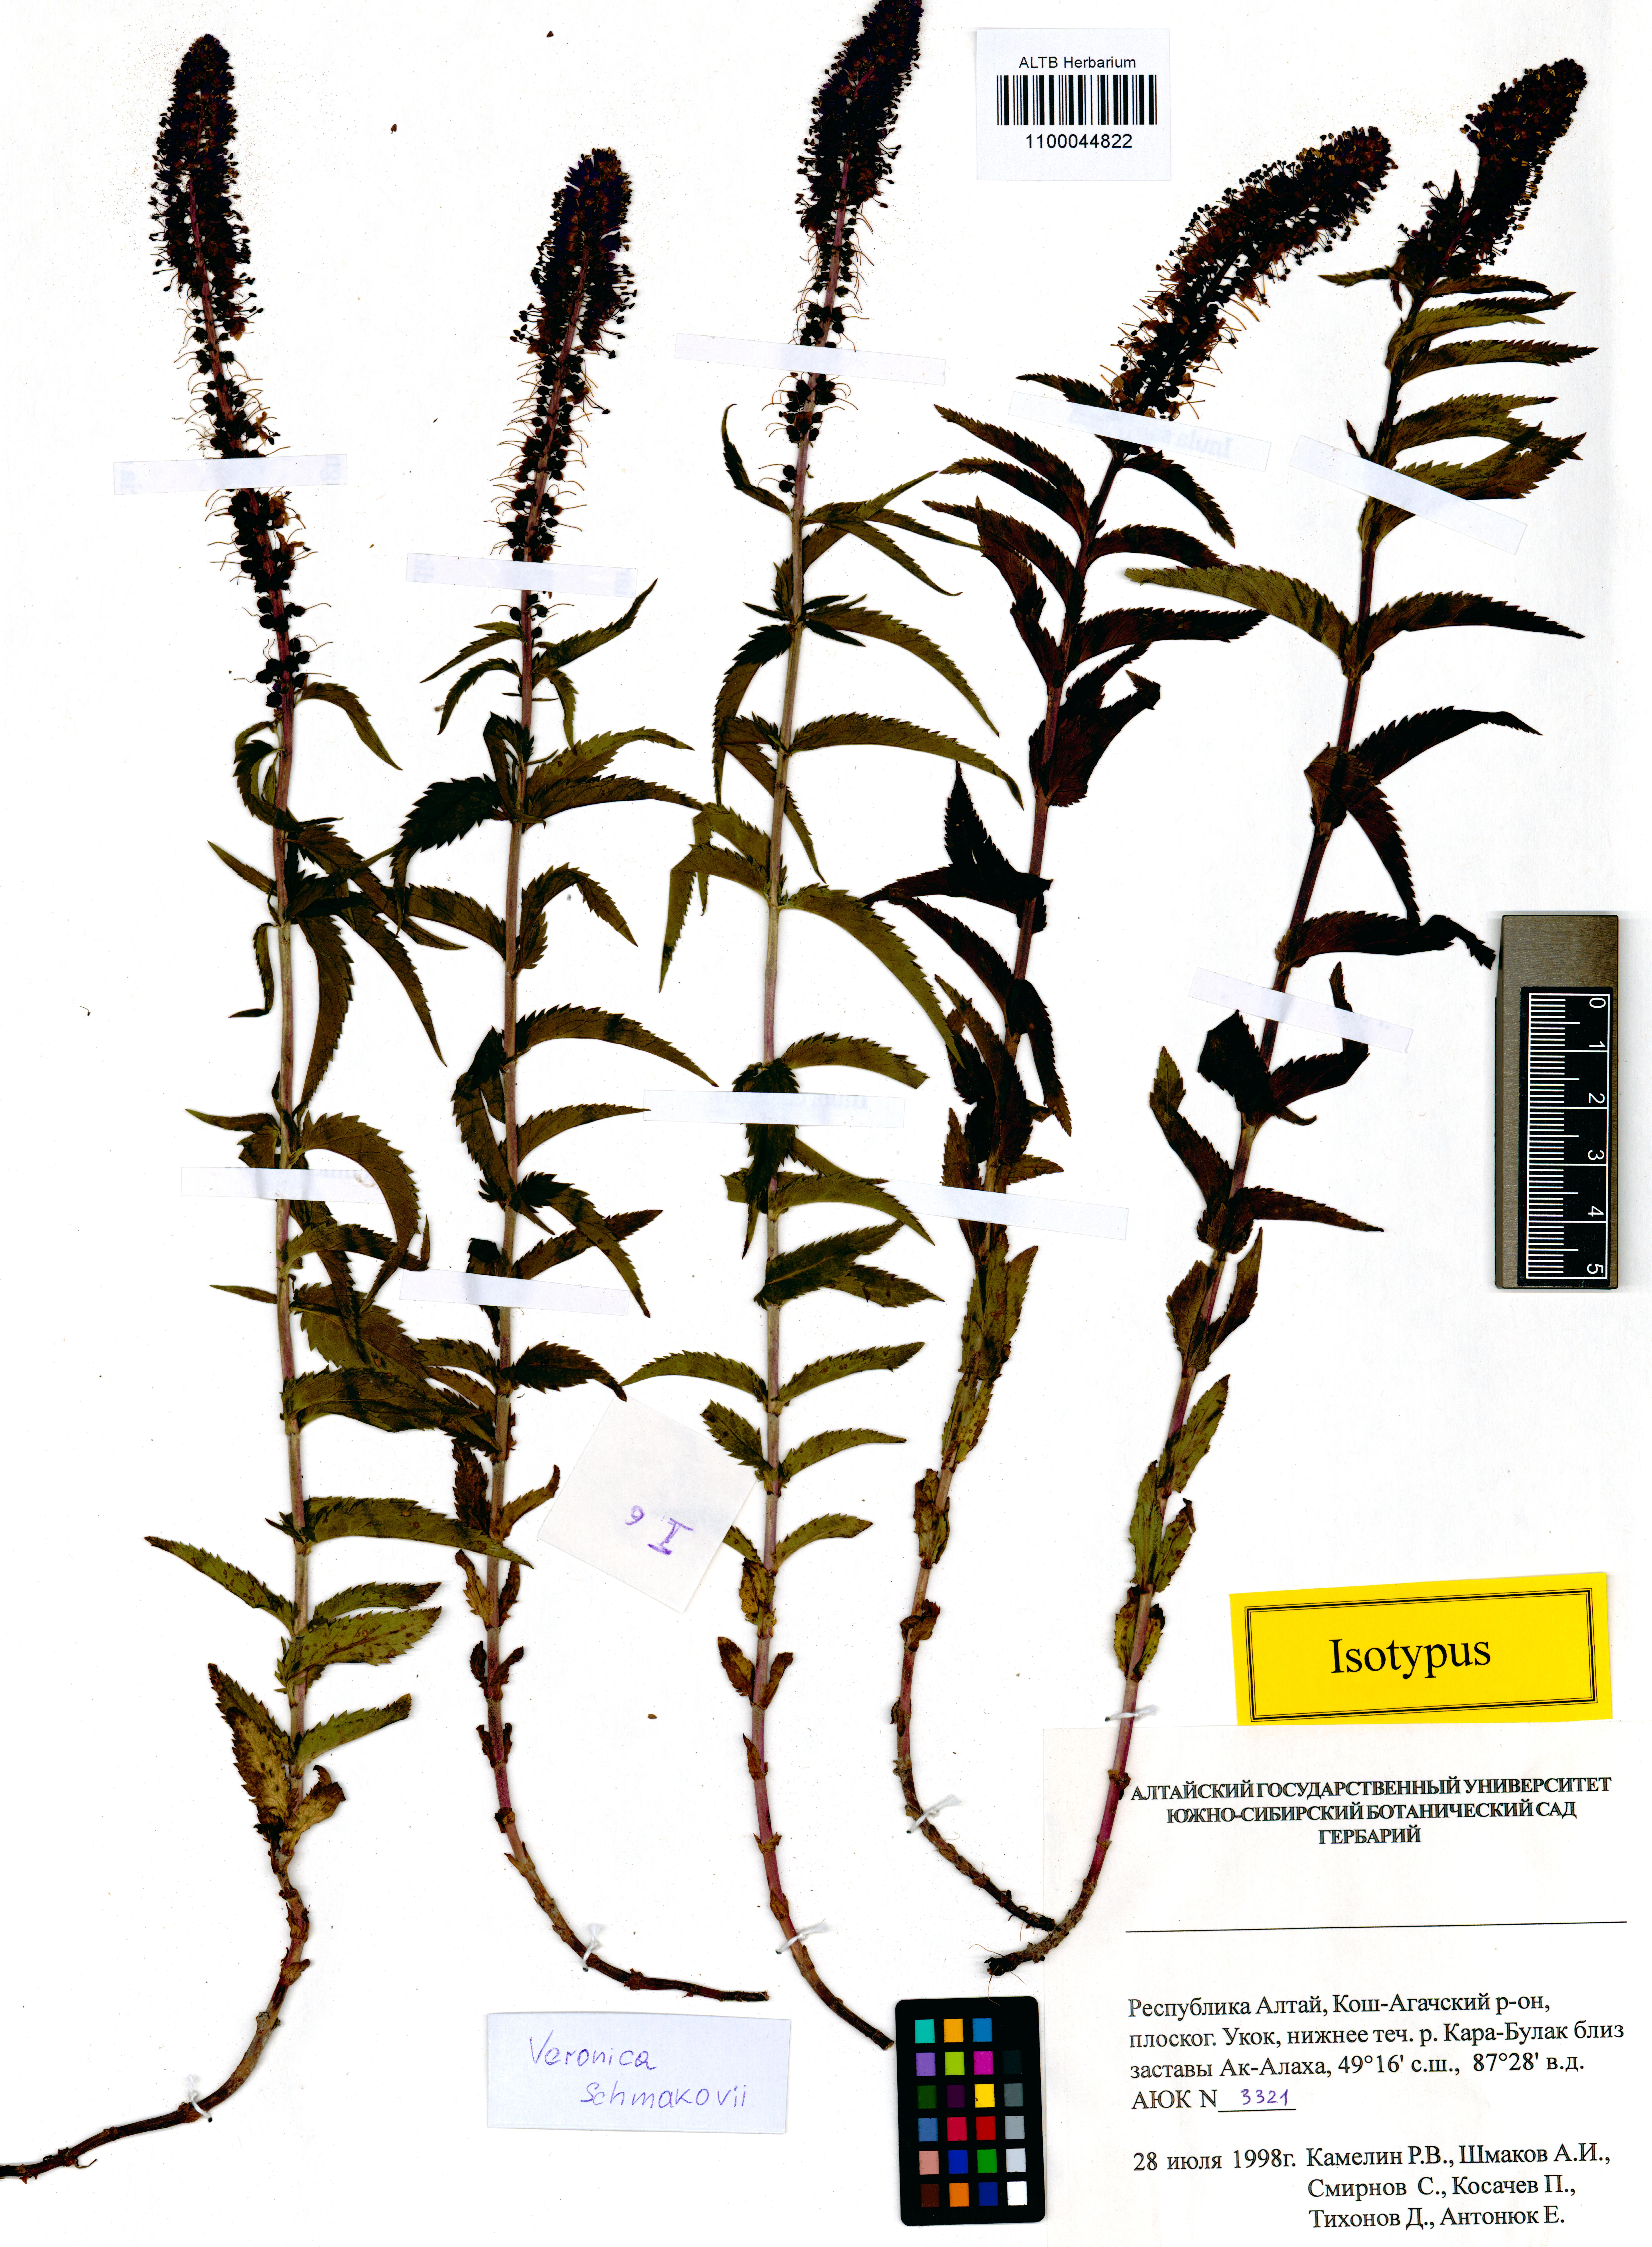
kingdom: Plantae
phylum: Tracheophyta
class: Magnoliopsida
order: Lamiales
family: Plantaginaceae
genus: Veronica
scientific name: Veronica schmakovii
